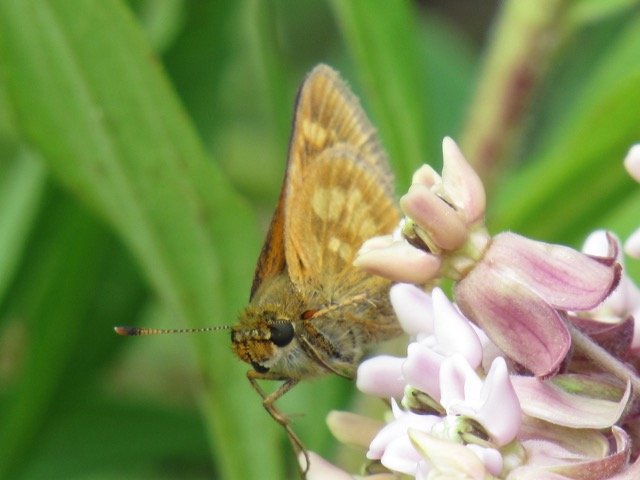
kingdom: Animalia
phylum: Arthropoda
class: Insecta
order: Lepidoptera
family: Hesperiidae
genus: Polites
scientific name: Polites
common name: Long Dash Skipper
